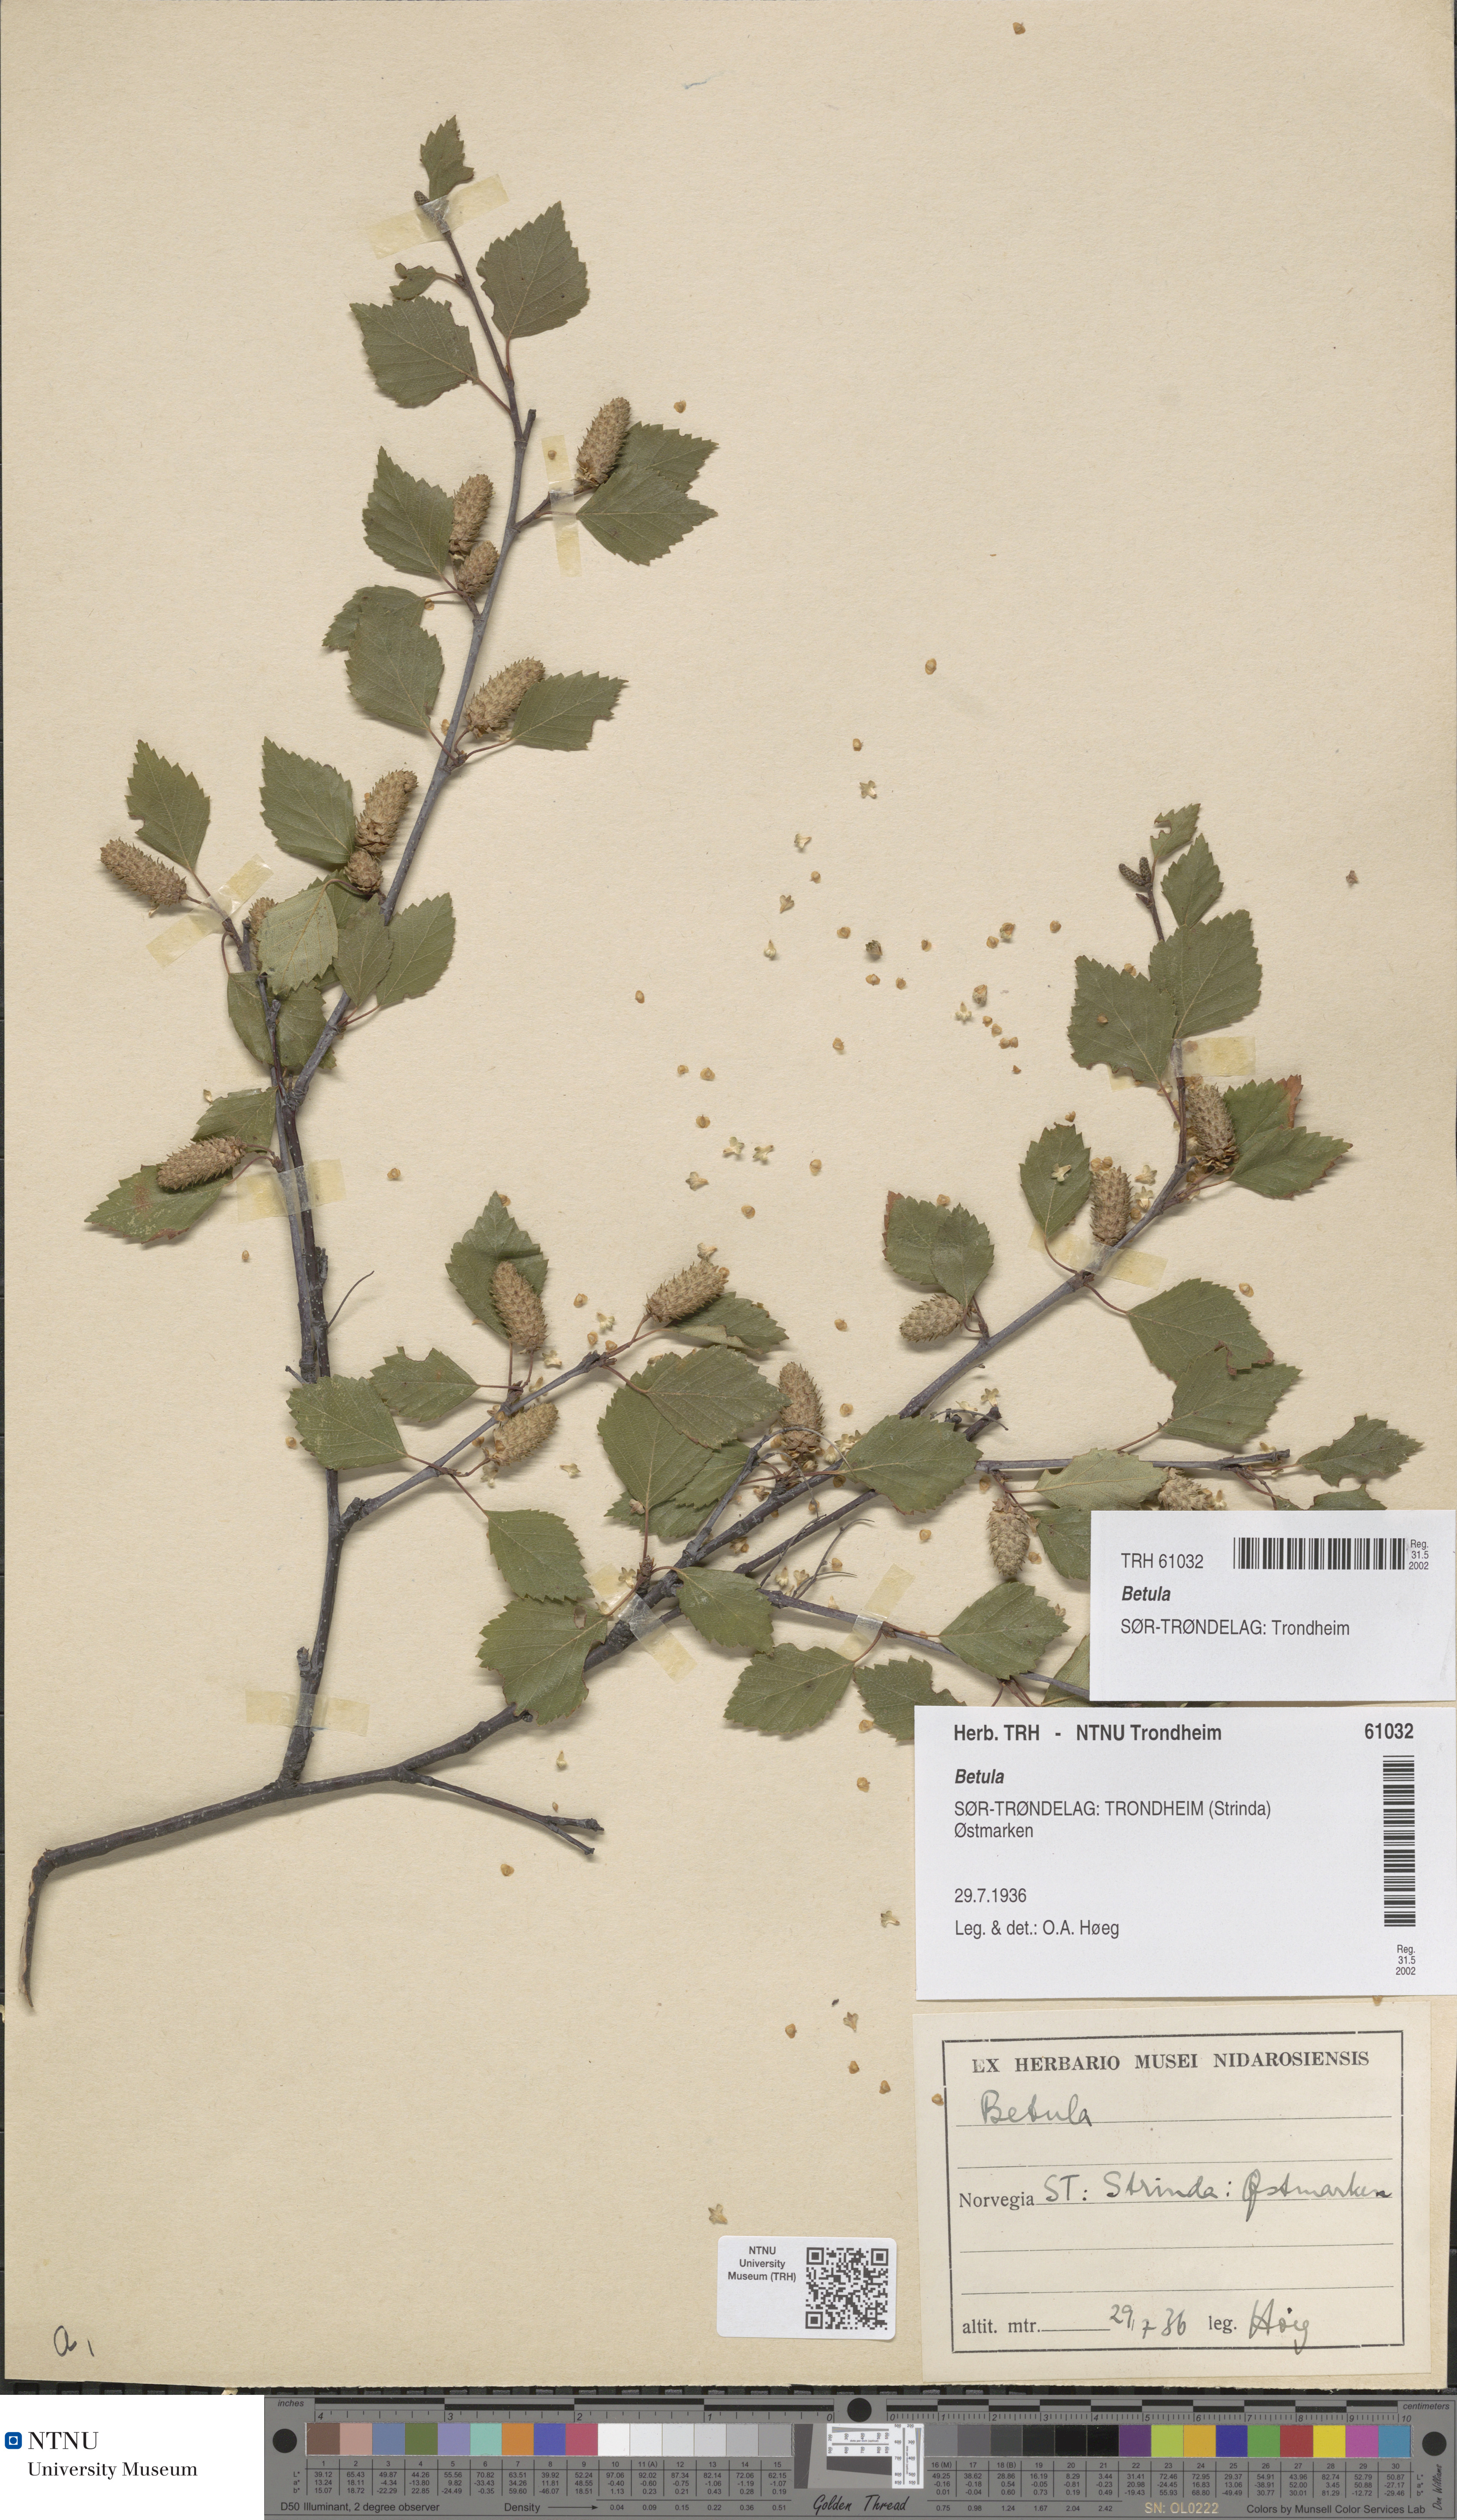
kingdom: Plantae
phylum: Tracheophyta
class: Magnoliopsida
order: Fagales
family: Betulaceae
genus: Betula
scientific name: Betula
